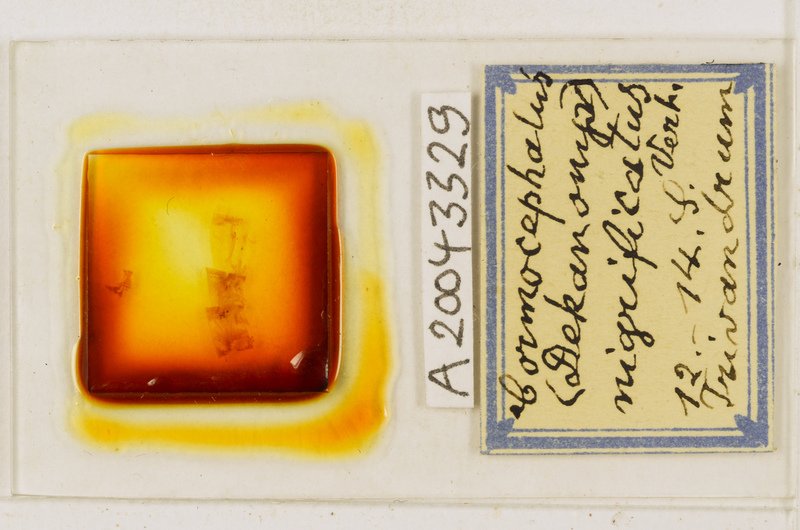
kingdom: Animalia
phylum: Arthropoda
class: Chilopoda
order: Scolopendromorpha
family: Scolopendridae
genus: Cormocephalus
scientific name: Cormocephalus nigrificatus
